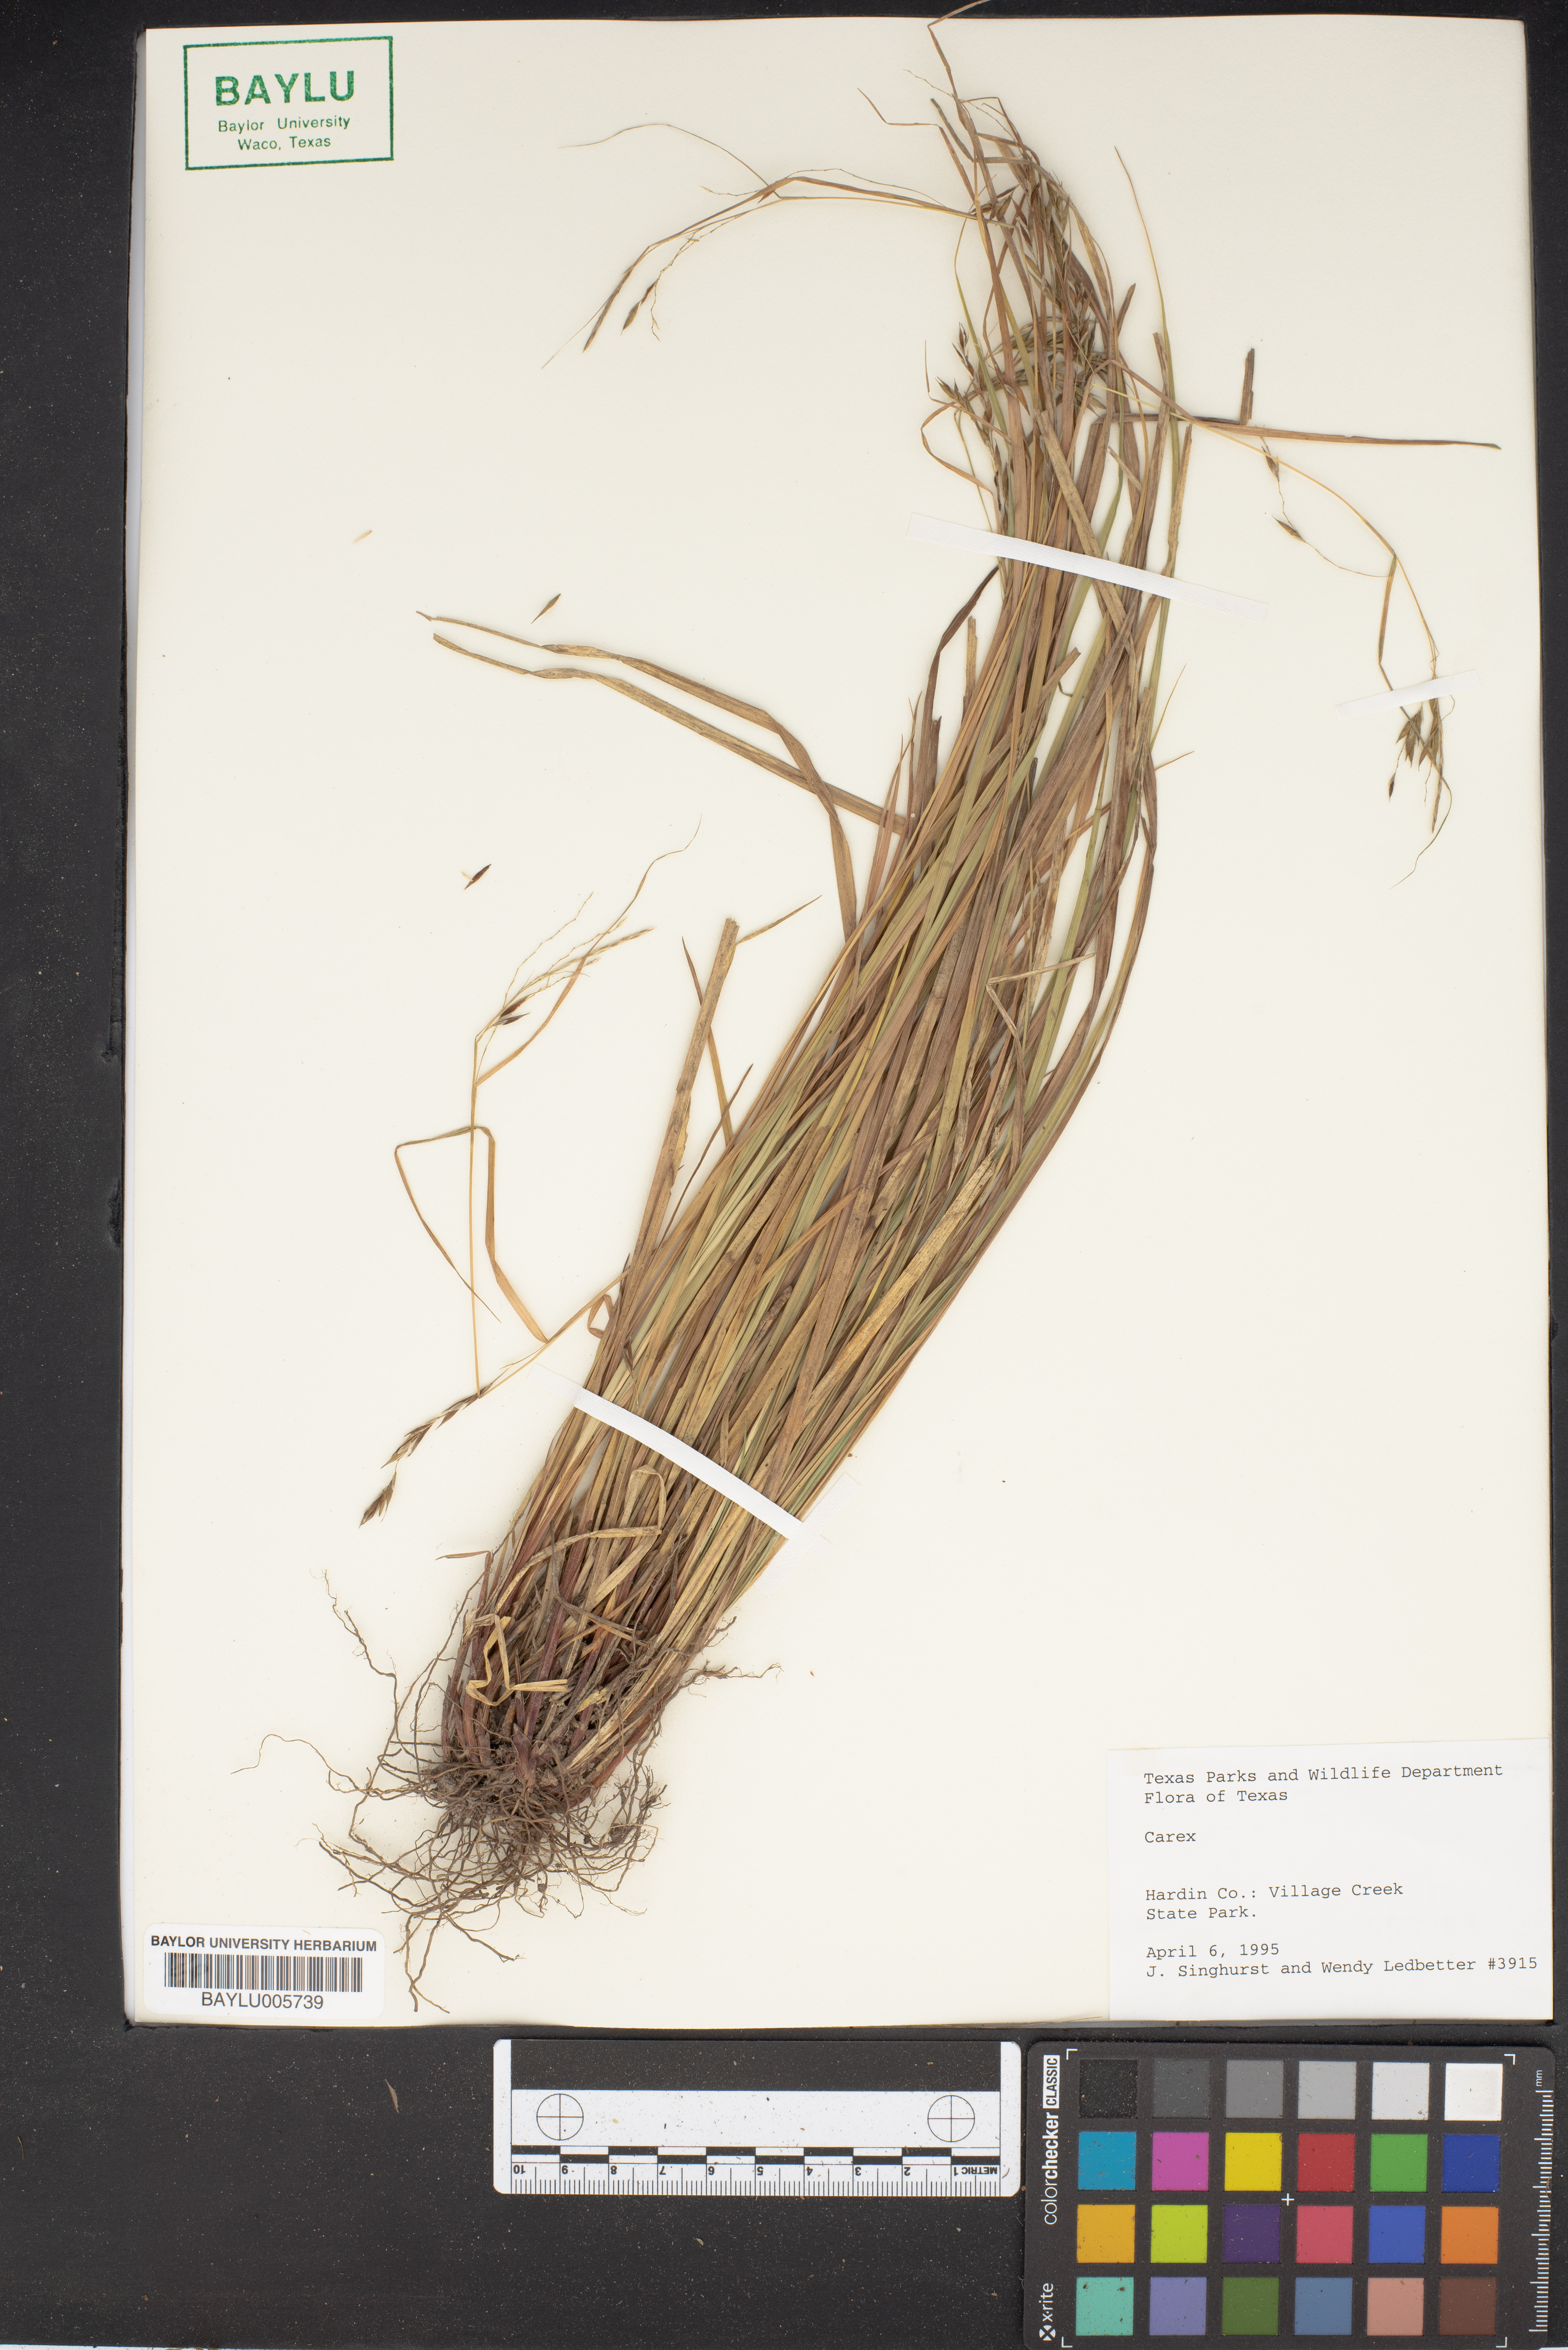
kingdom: Plantae
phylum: Tracheophyta
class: Liliopsida
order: Poales
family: Cyperaceae
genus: Carex
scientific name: Carex
